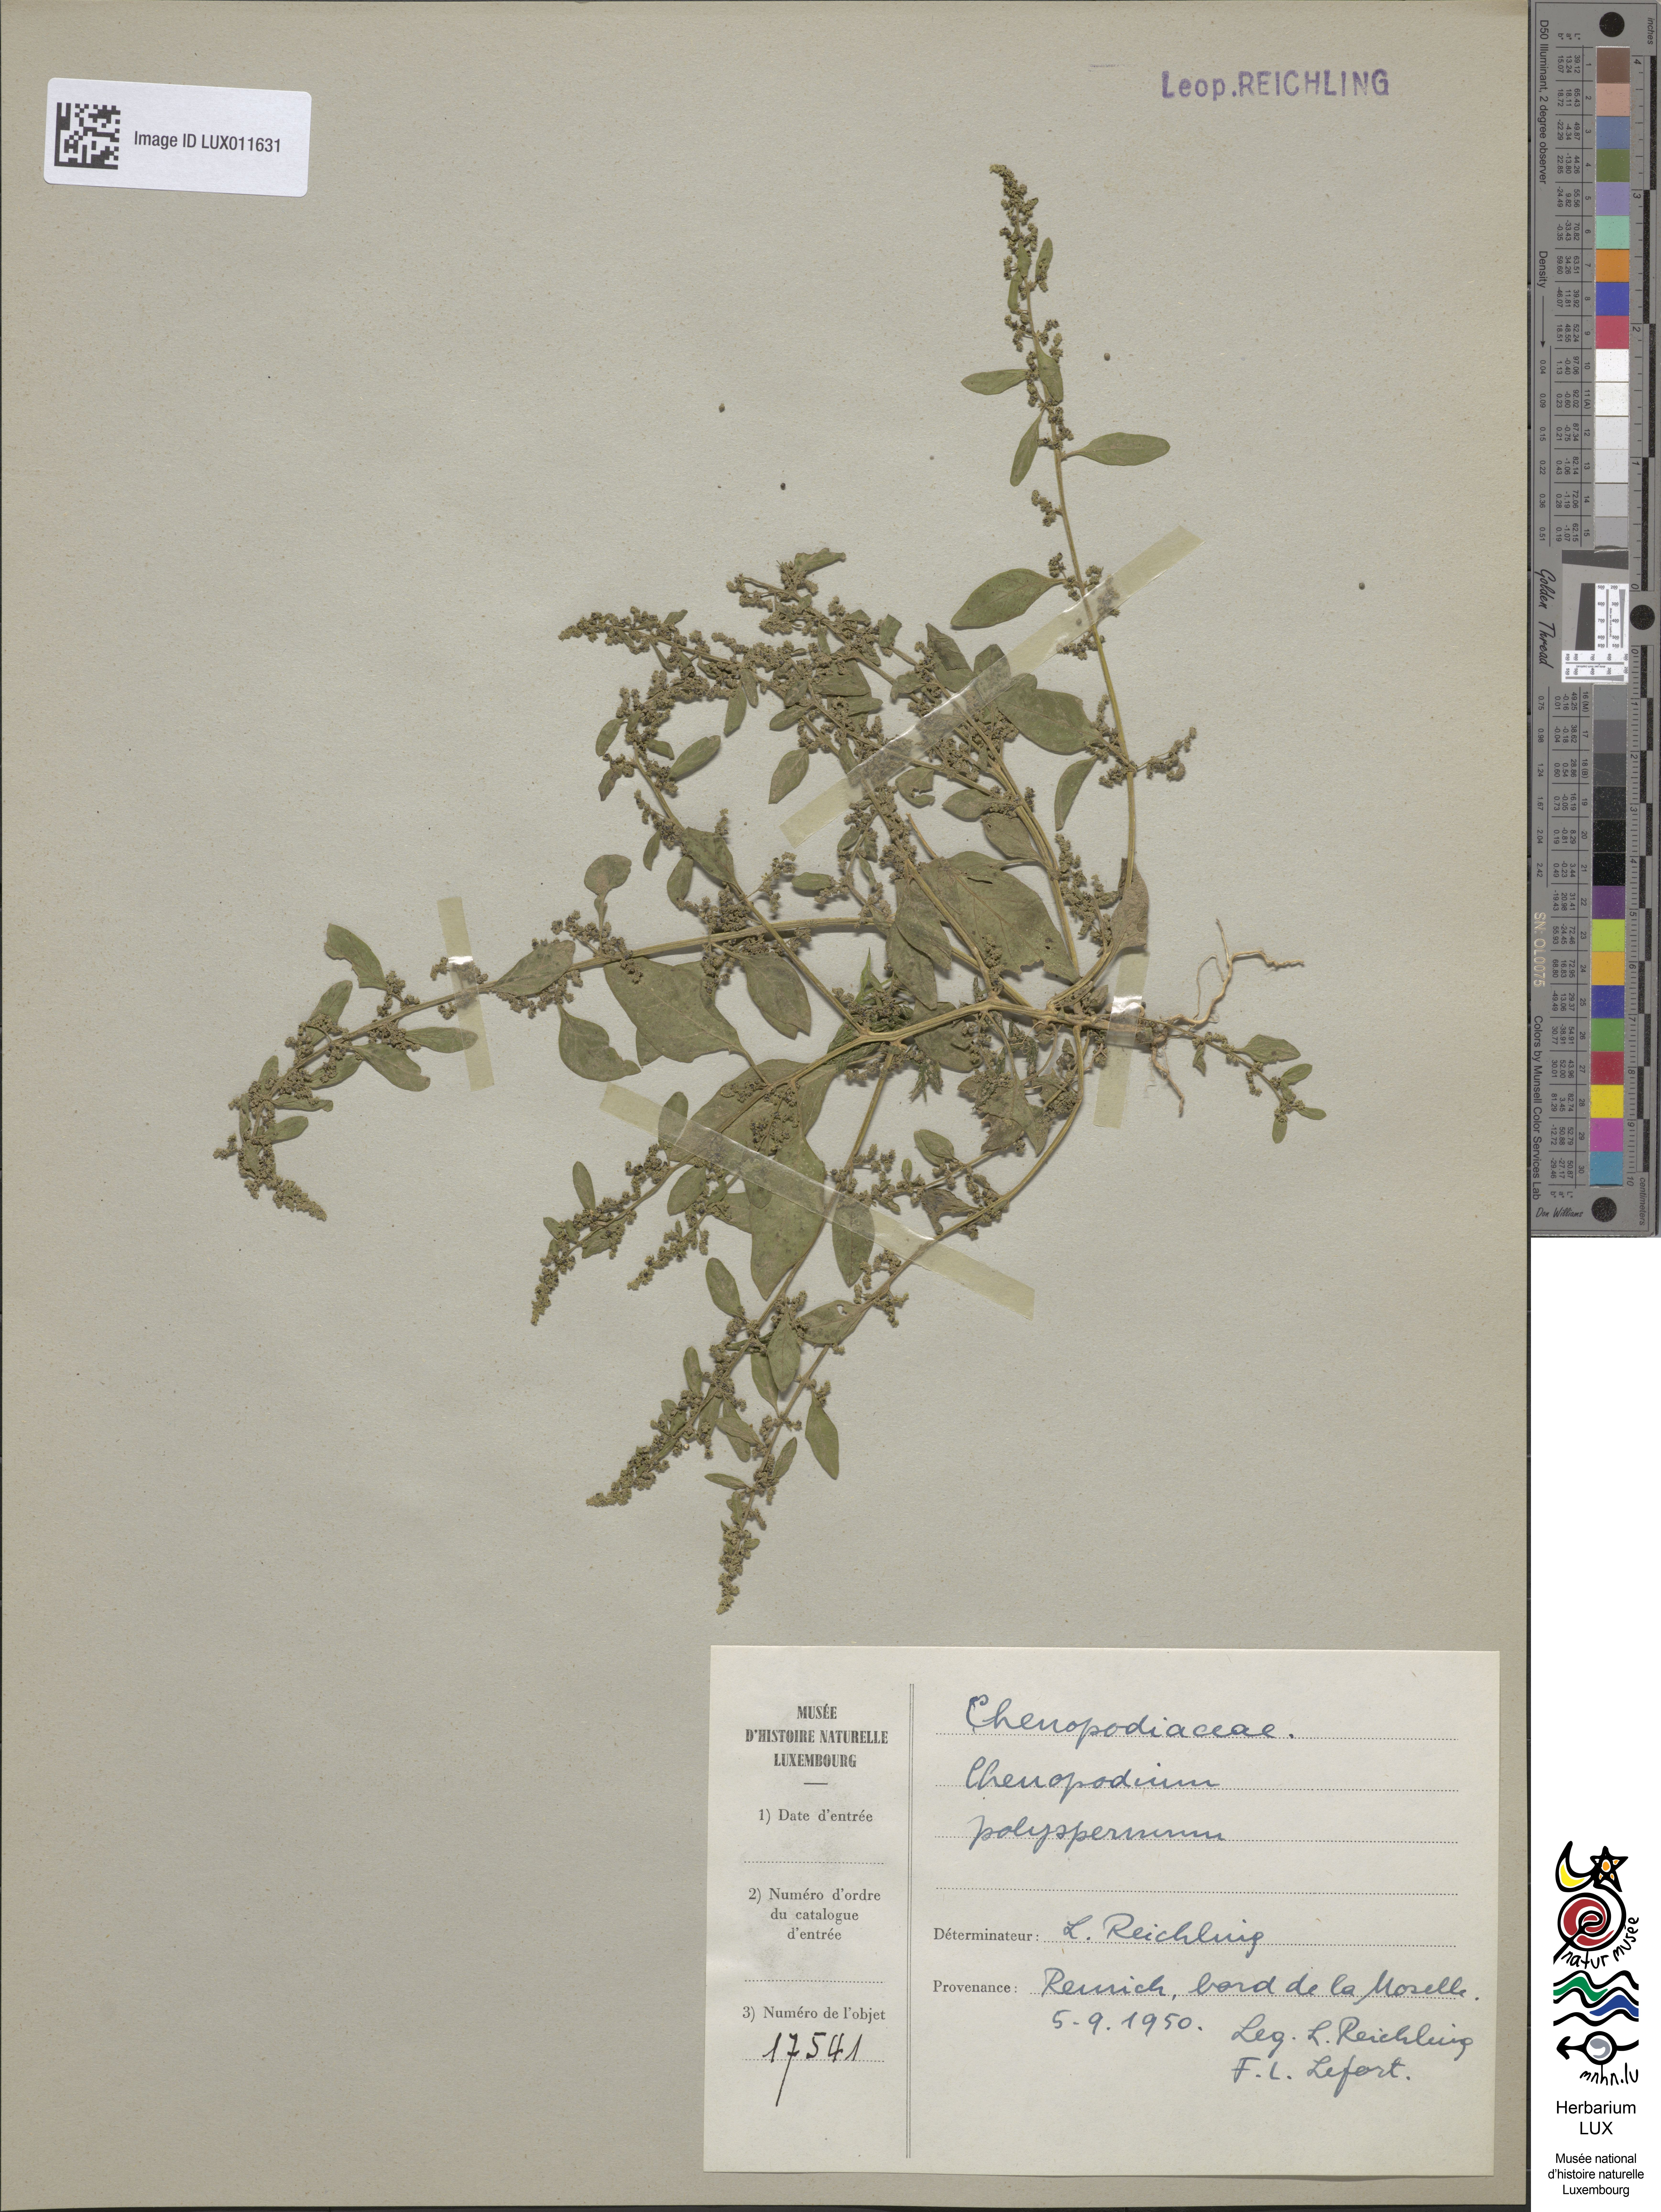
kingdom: Plantae
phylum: Tracheophyta
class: Magnoliopsida
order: Caryophyllales
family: Amaranthaceae
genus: Lipandra
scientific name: Lipandra polysperma
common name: Many-seed goosefoot
